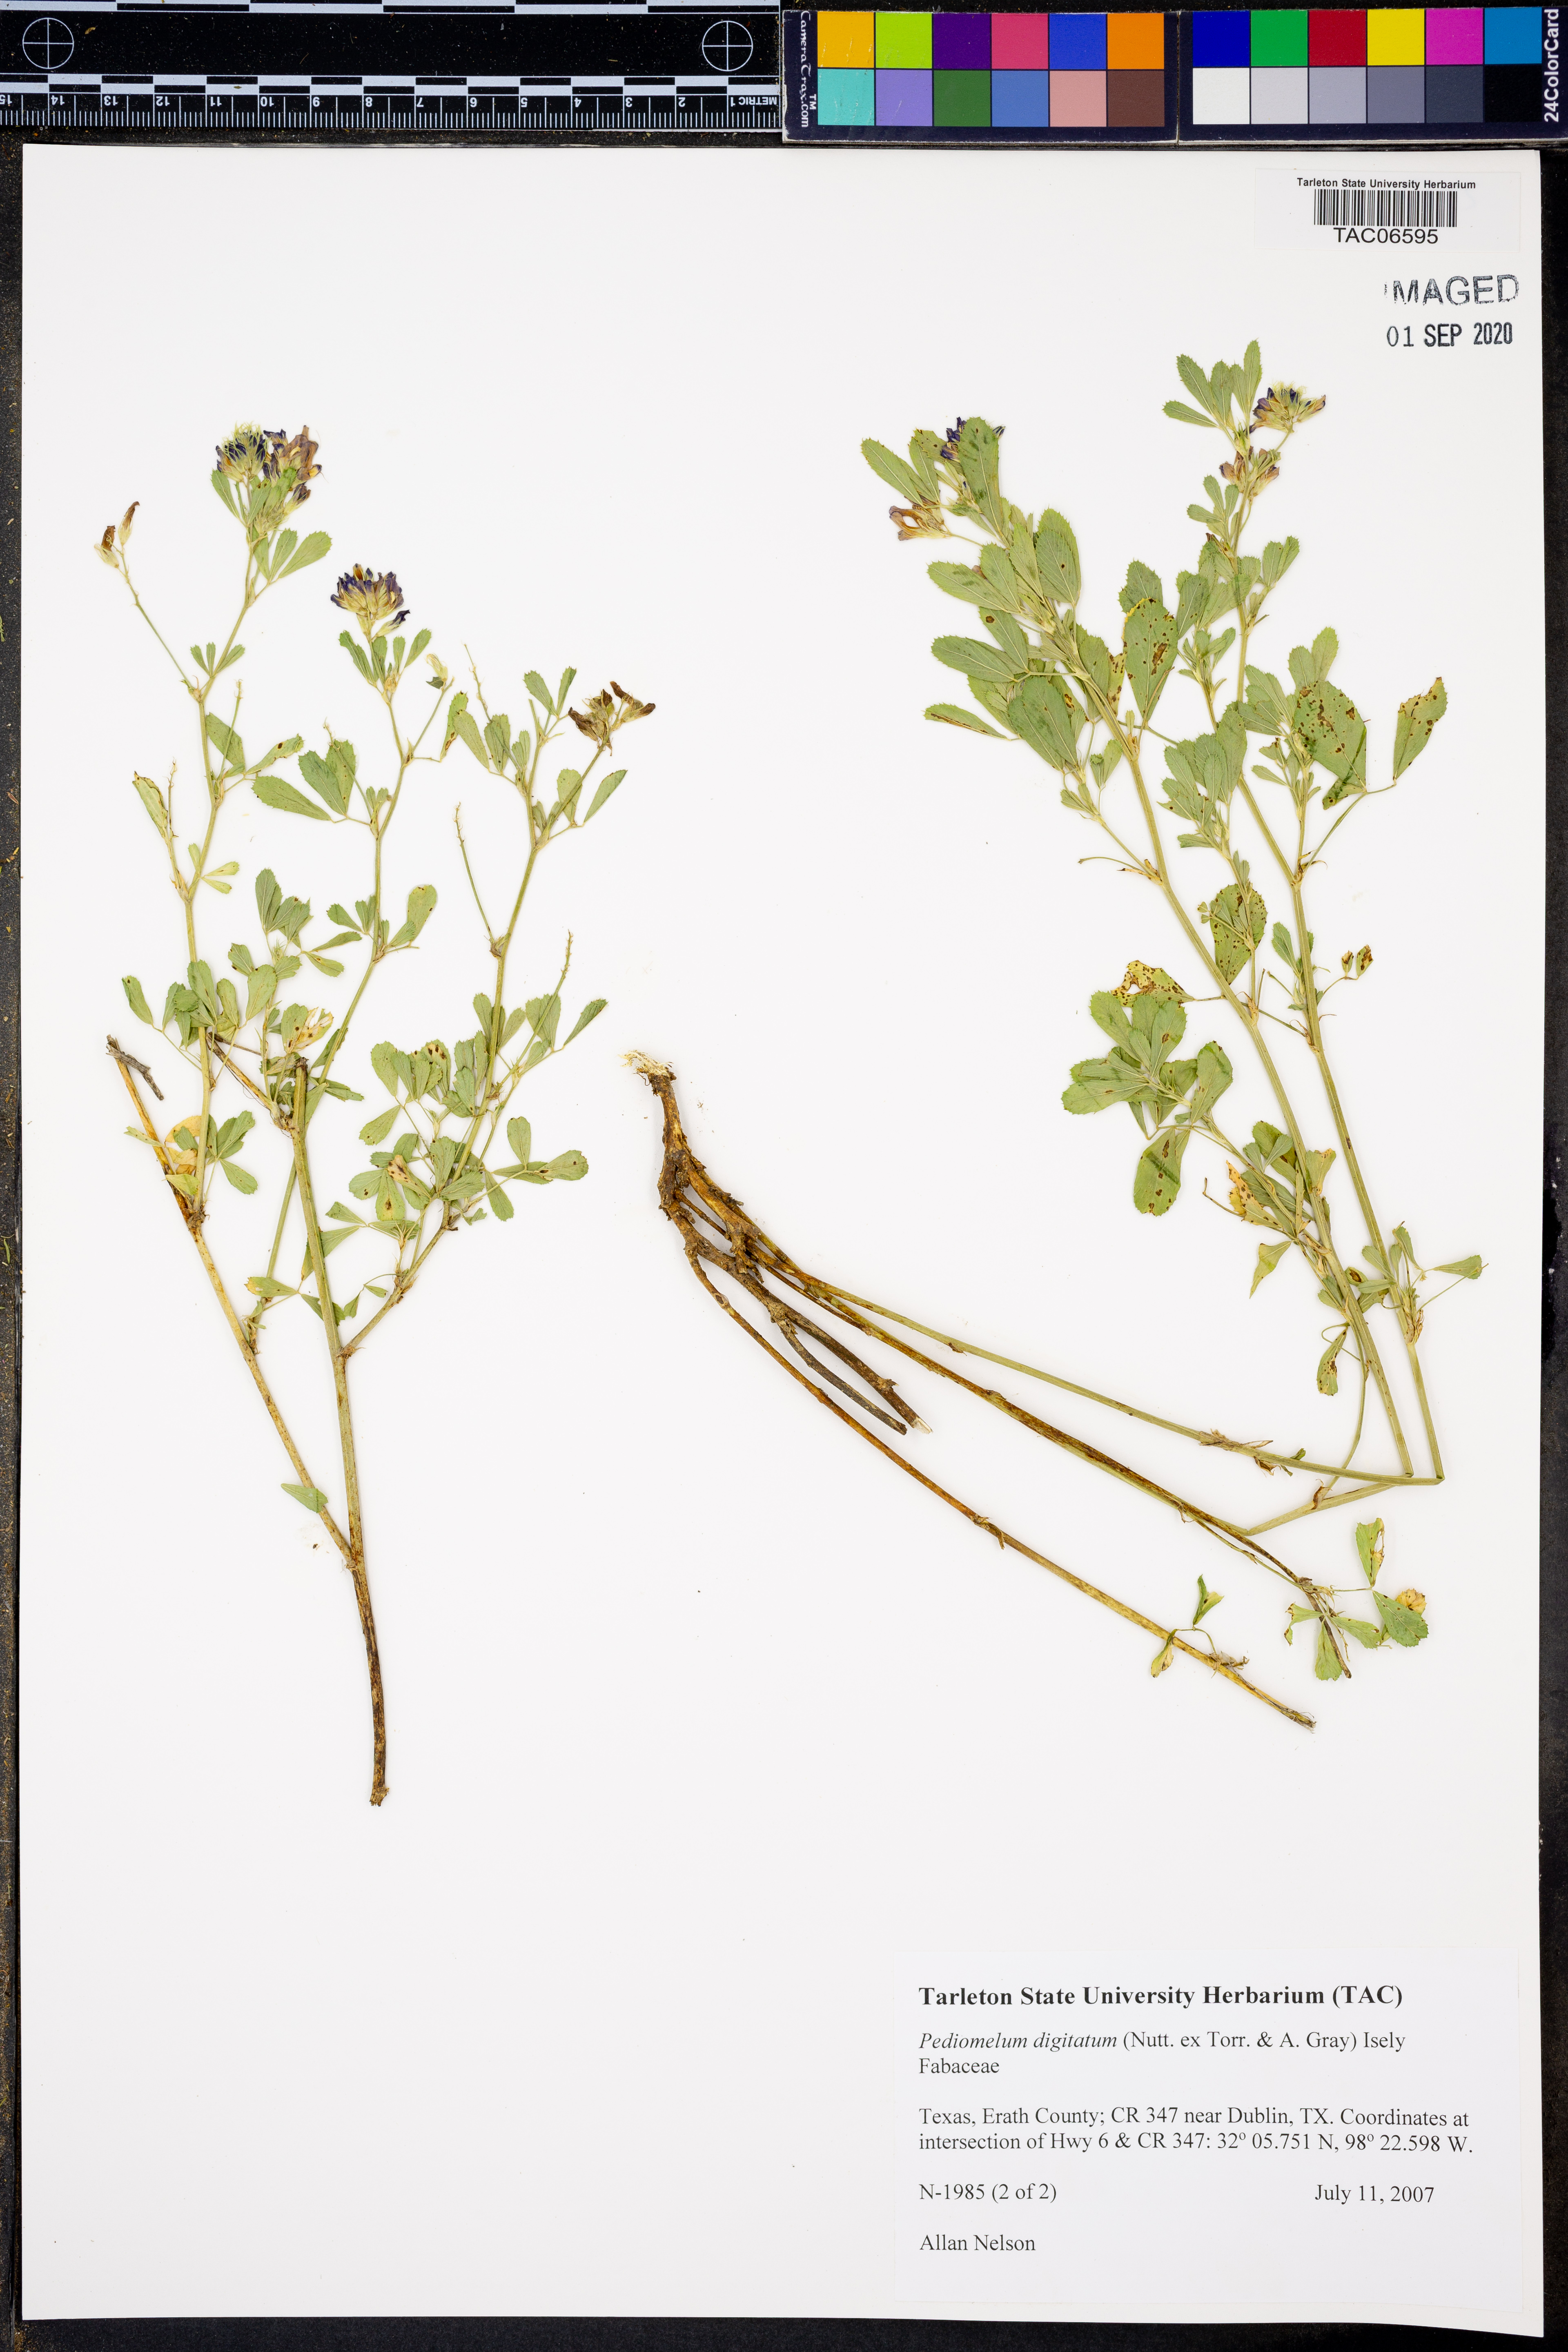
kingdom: Plantae
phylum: Tracheophyta
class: Magnoliopsida
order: Fabales
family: Fabaceae
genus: Pediomelum
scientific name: Pediomelum digitatum
